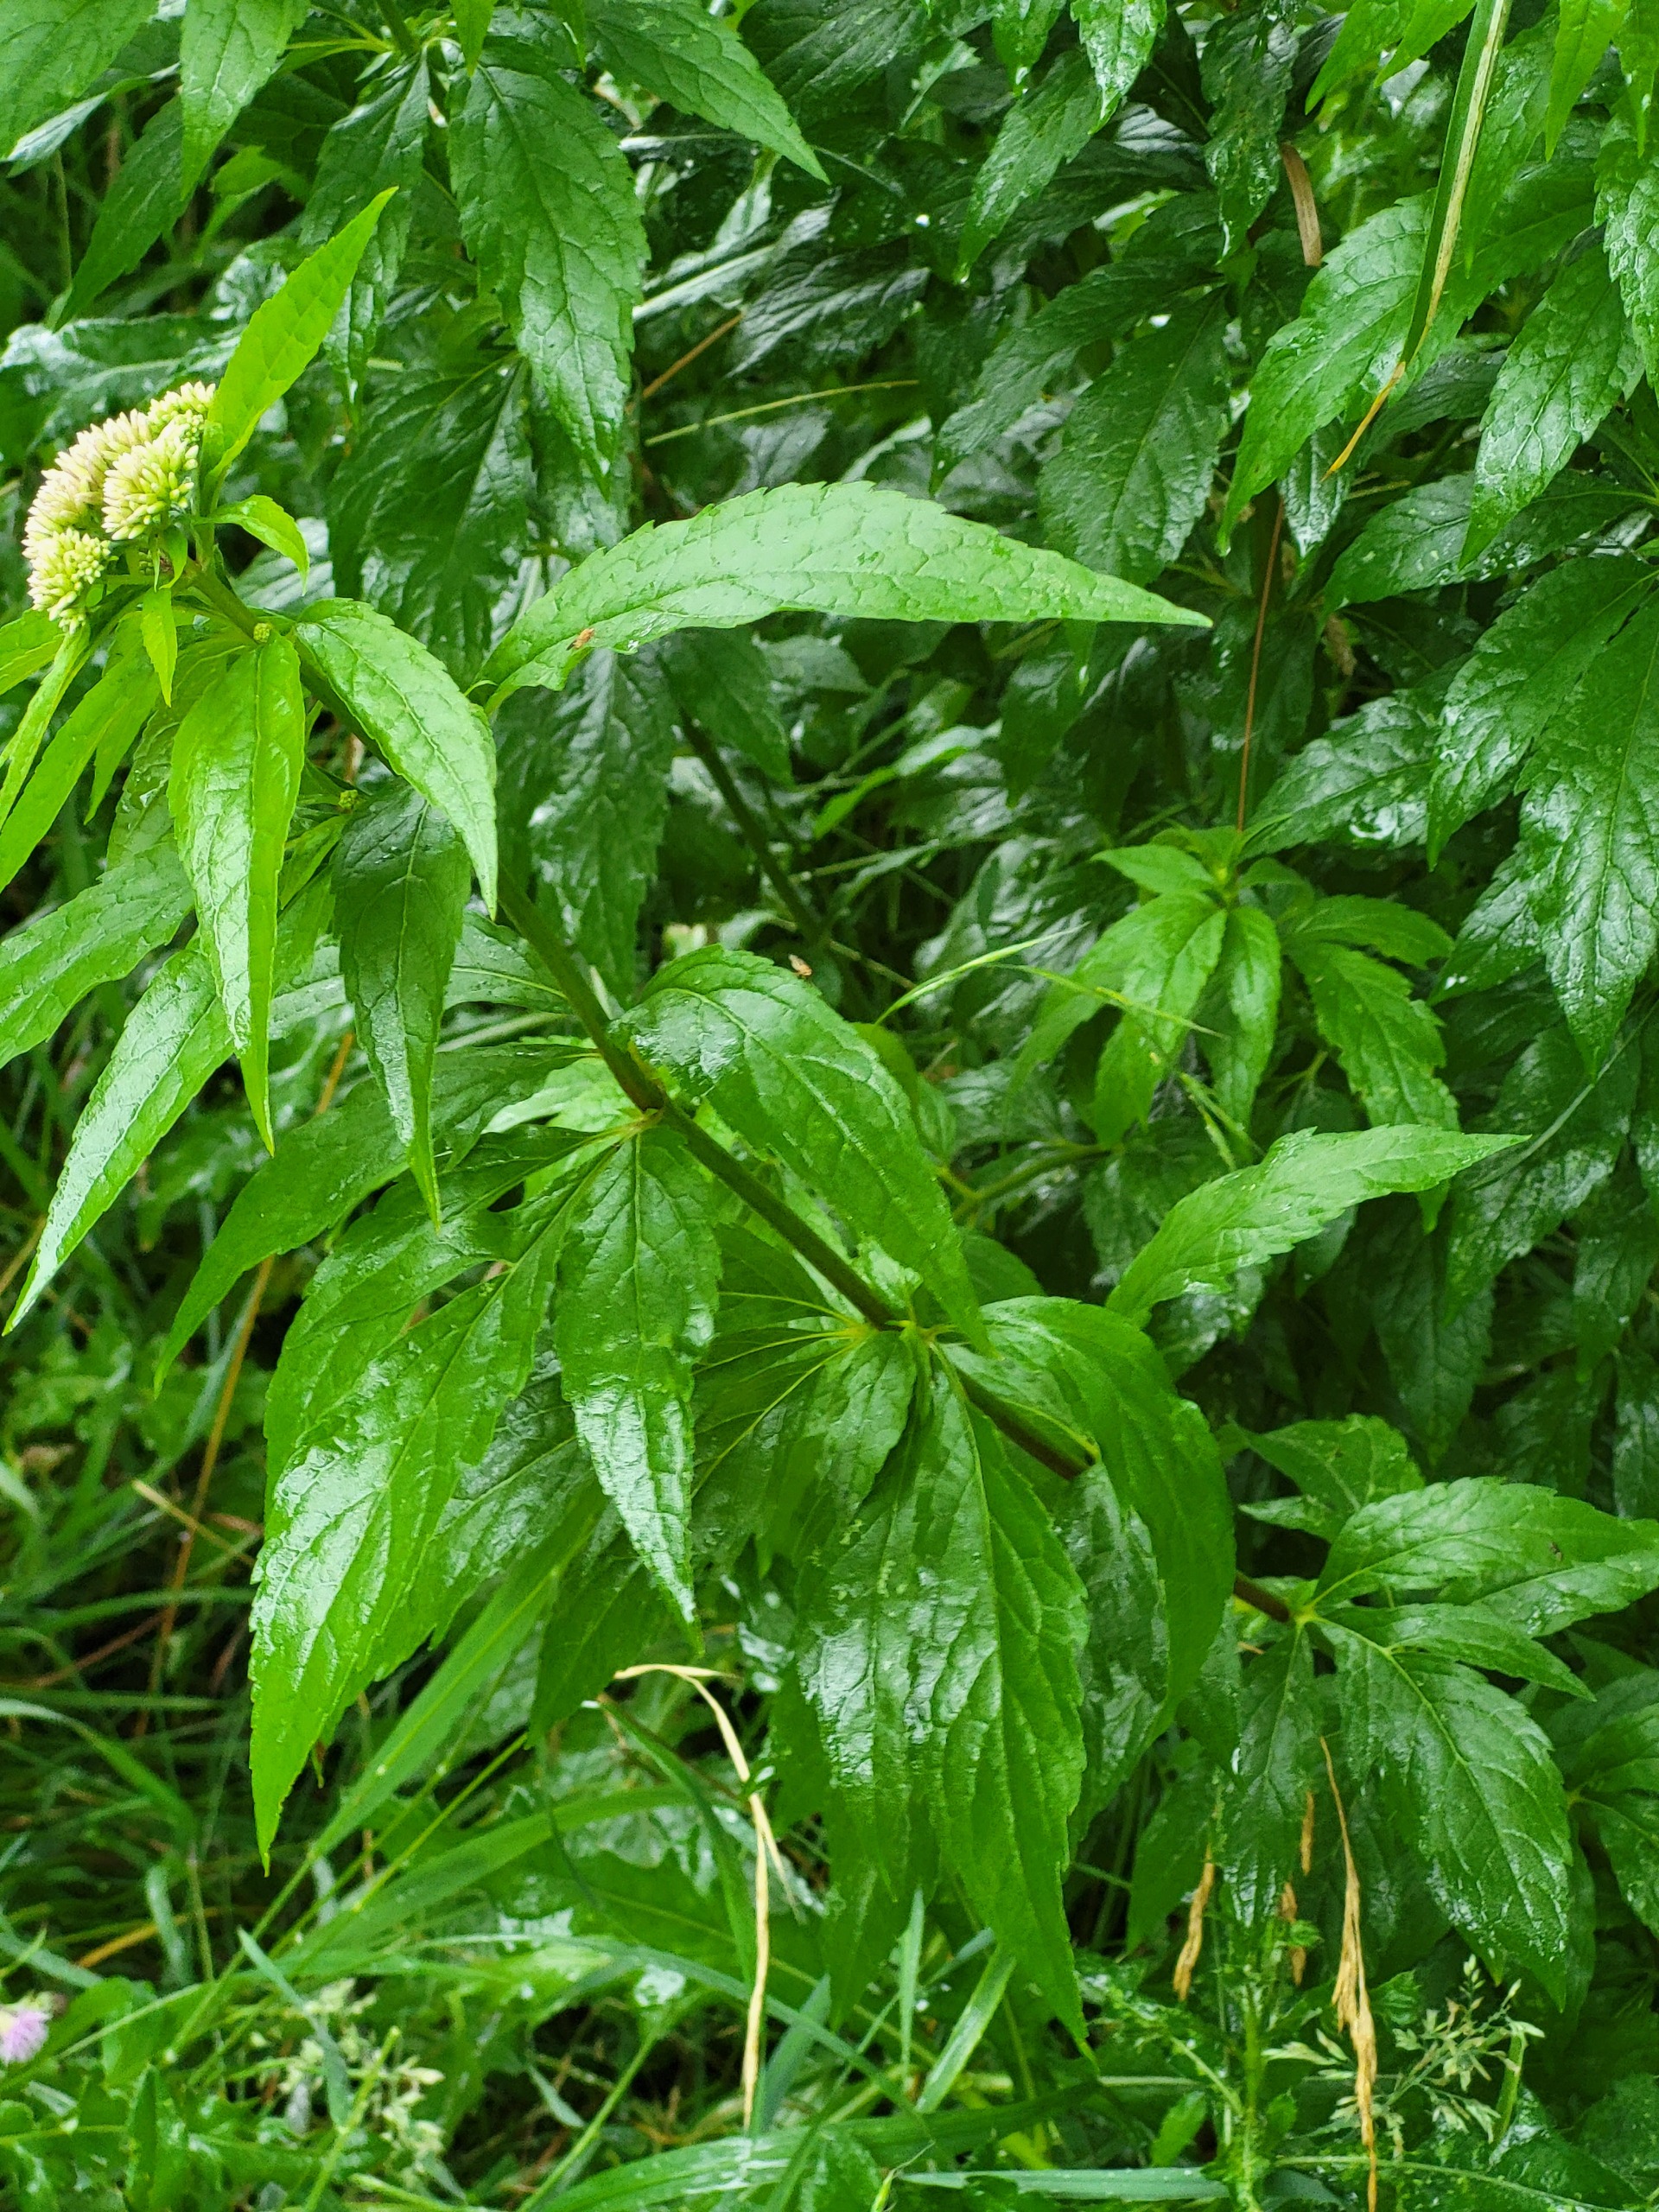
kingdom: Plantae
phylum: Tracheophyta
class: Magnoliopsida
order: Asterales
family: Asteraceae
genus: Eupatorium
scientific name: Eupatorium cannabinum
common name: Hjortetrøst
